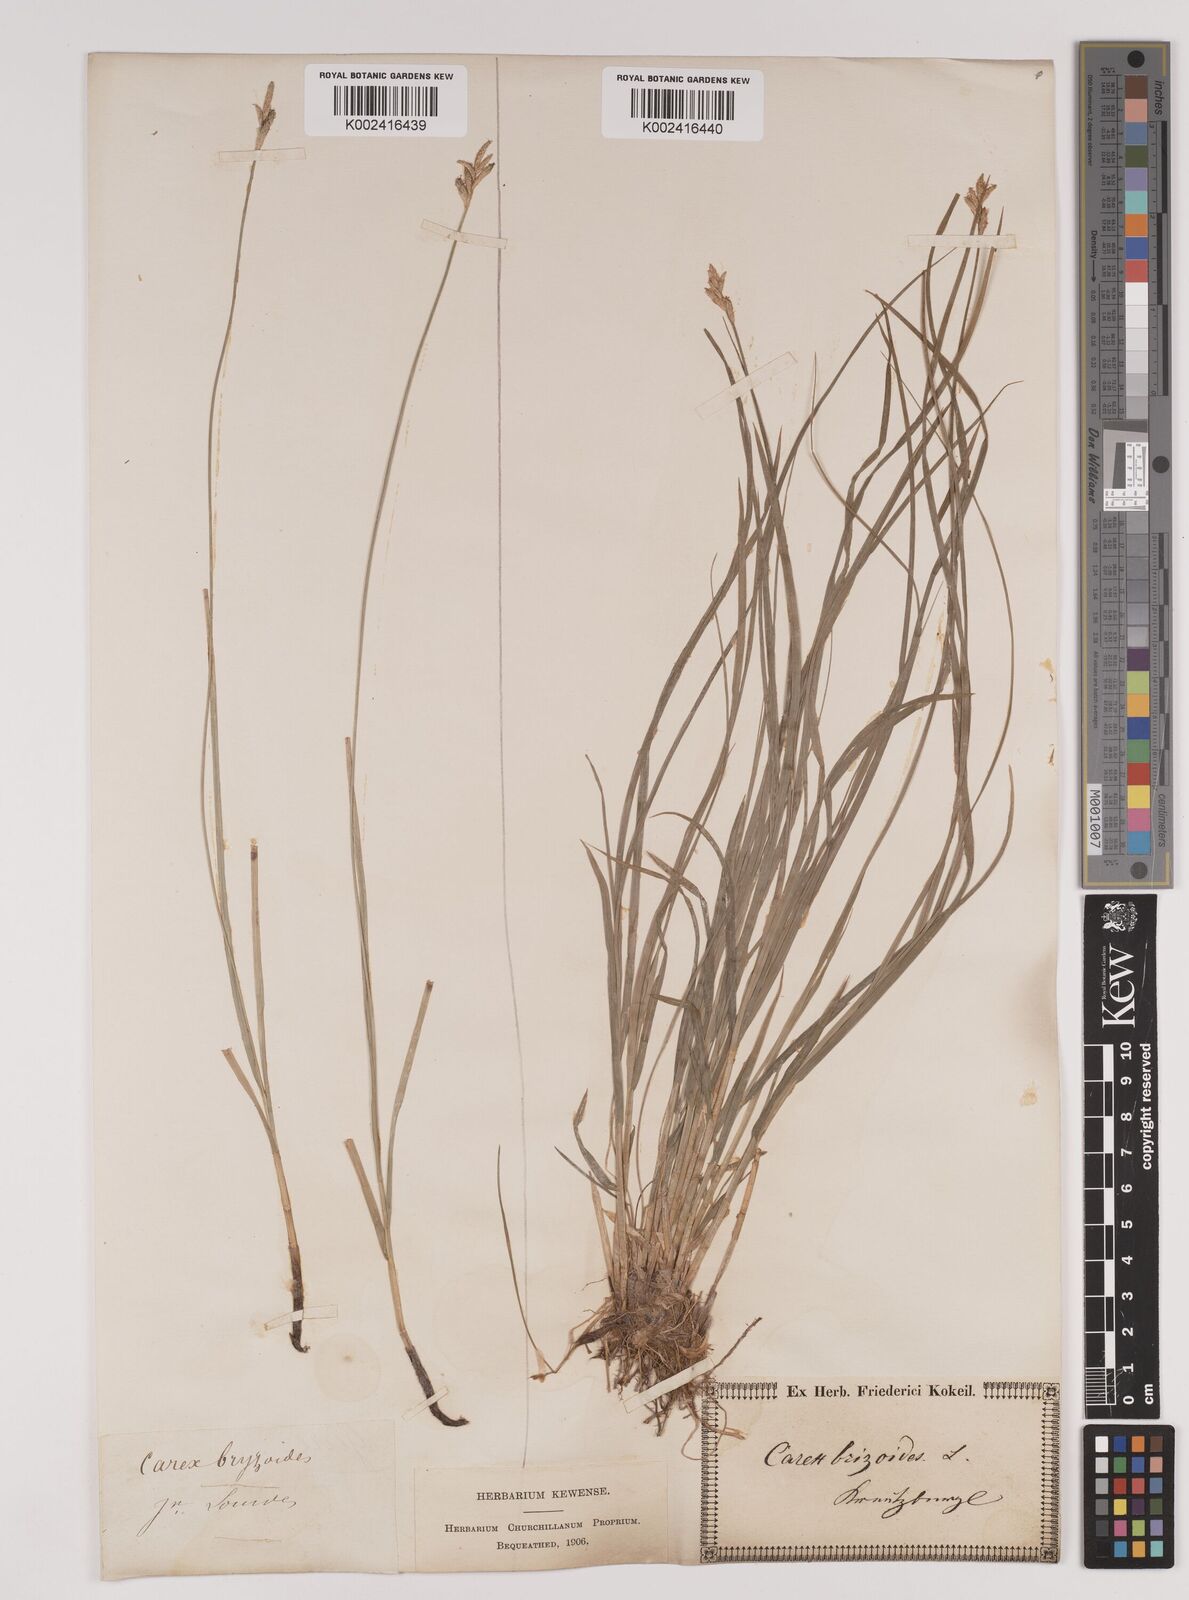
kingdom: Plantae
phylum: Tracheophyta
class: Liliopsida
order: Poales
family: Cyperaceae
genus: Carex
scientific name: Carex brizoides
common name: Quaking-grass sedge
